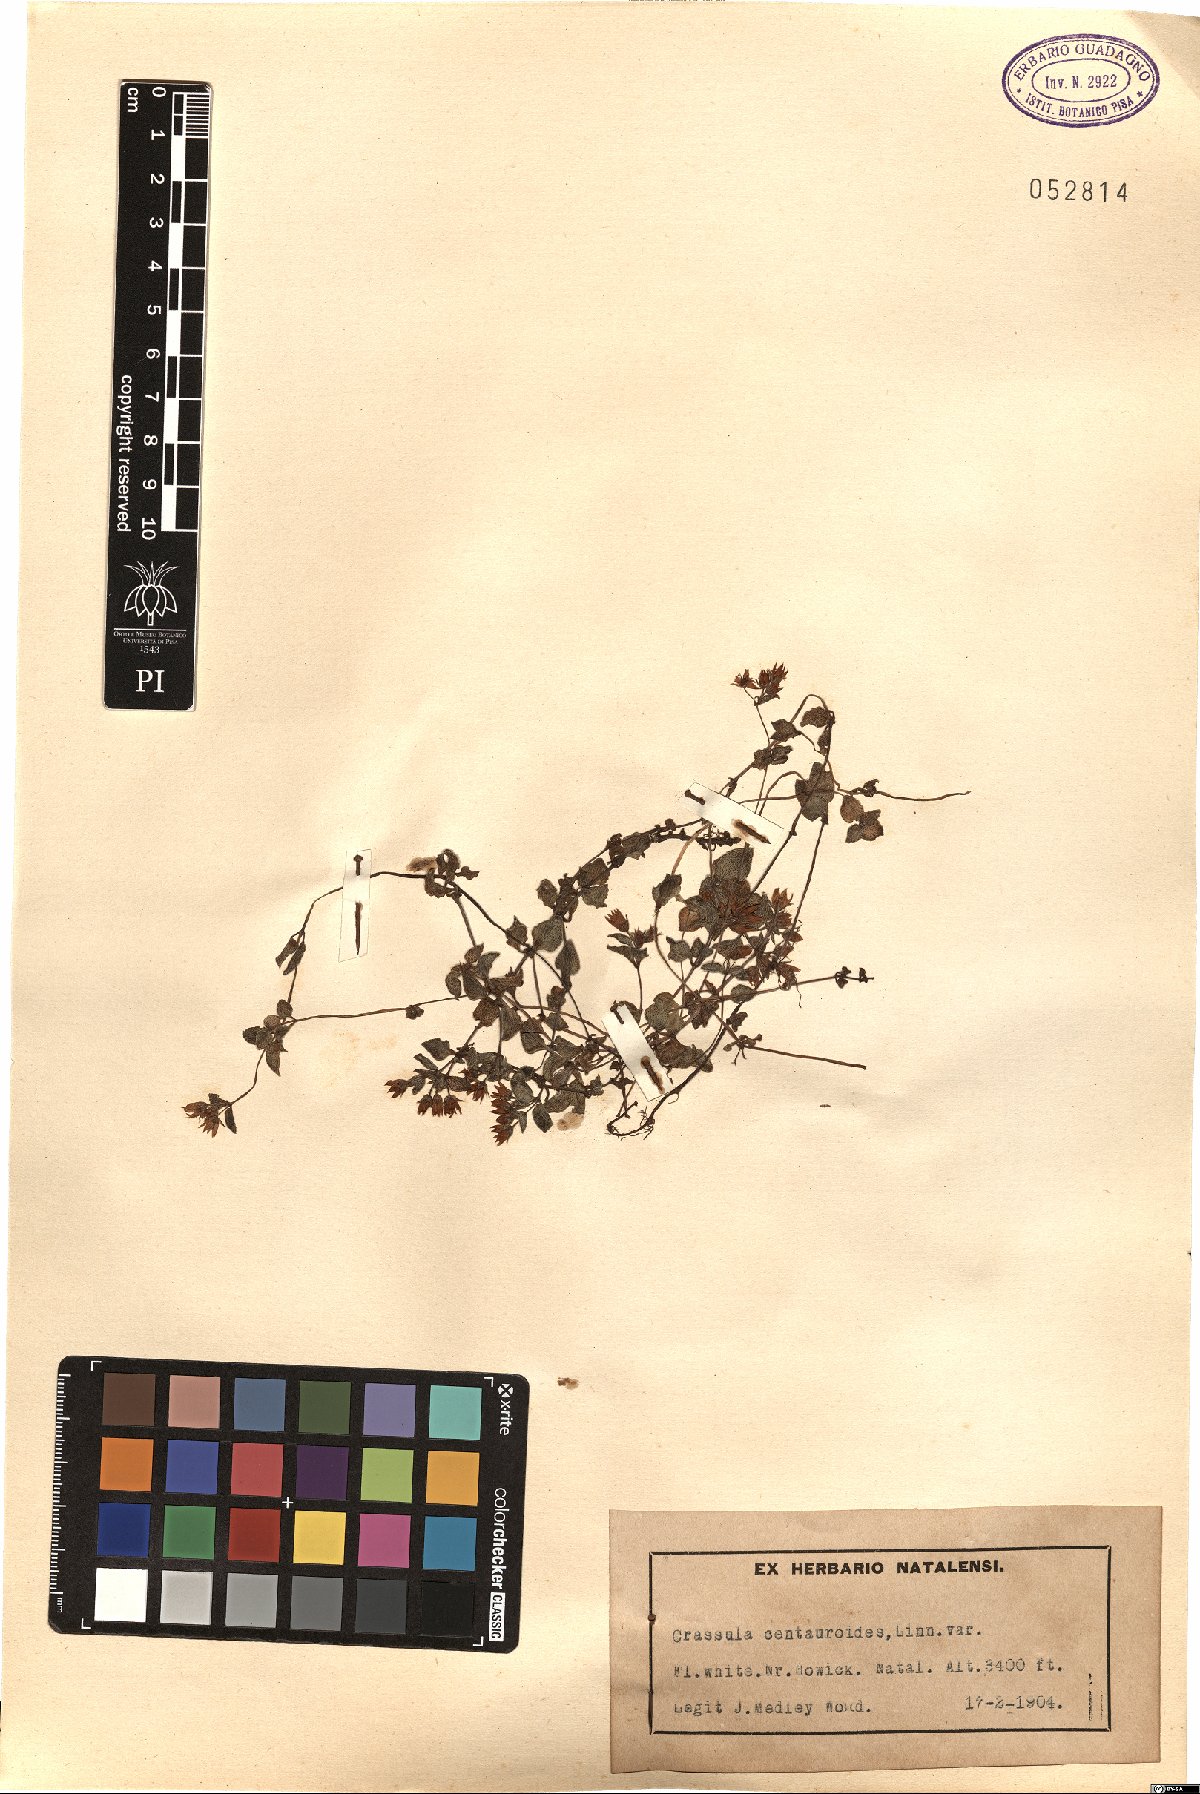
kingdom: Plantae
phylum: Tracheophyta
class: Magnoliopsida
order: Saxifragales
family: Crassulaceae
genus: Crassula
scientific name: Crassula strigosa
